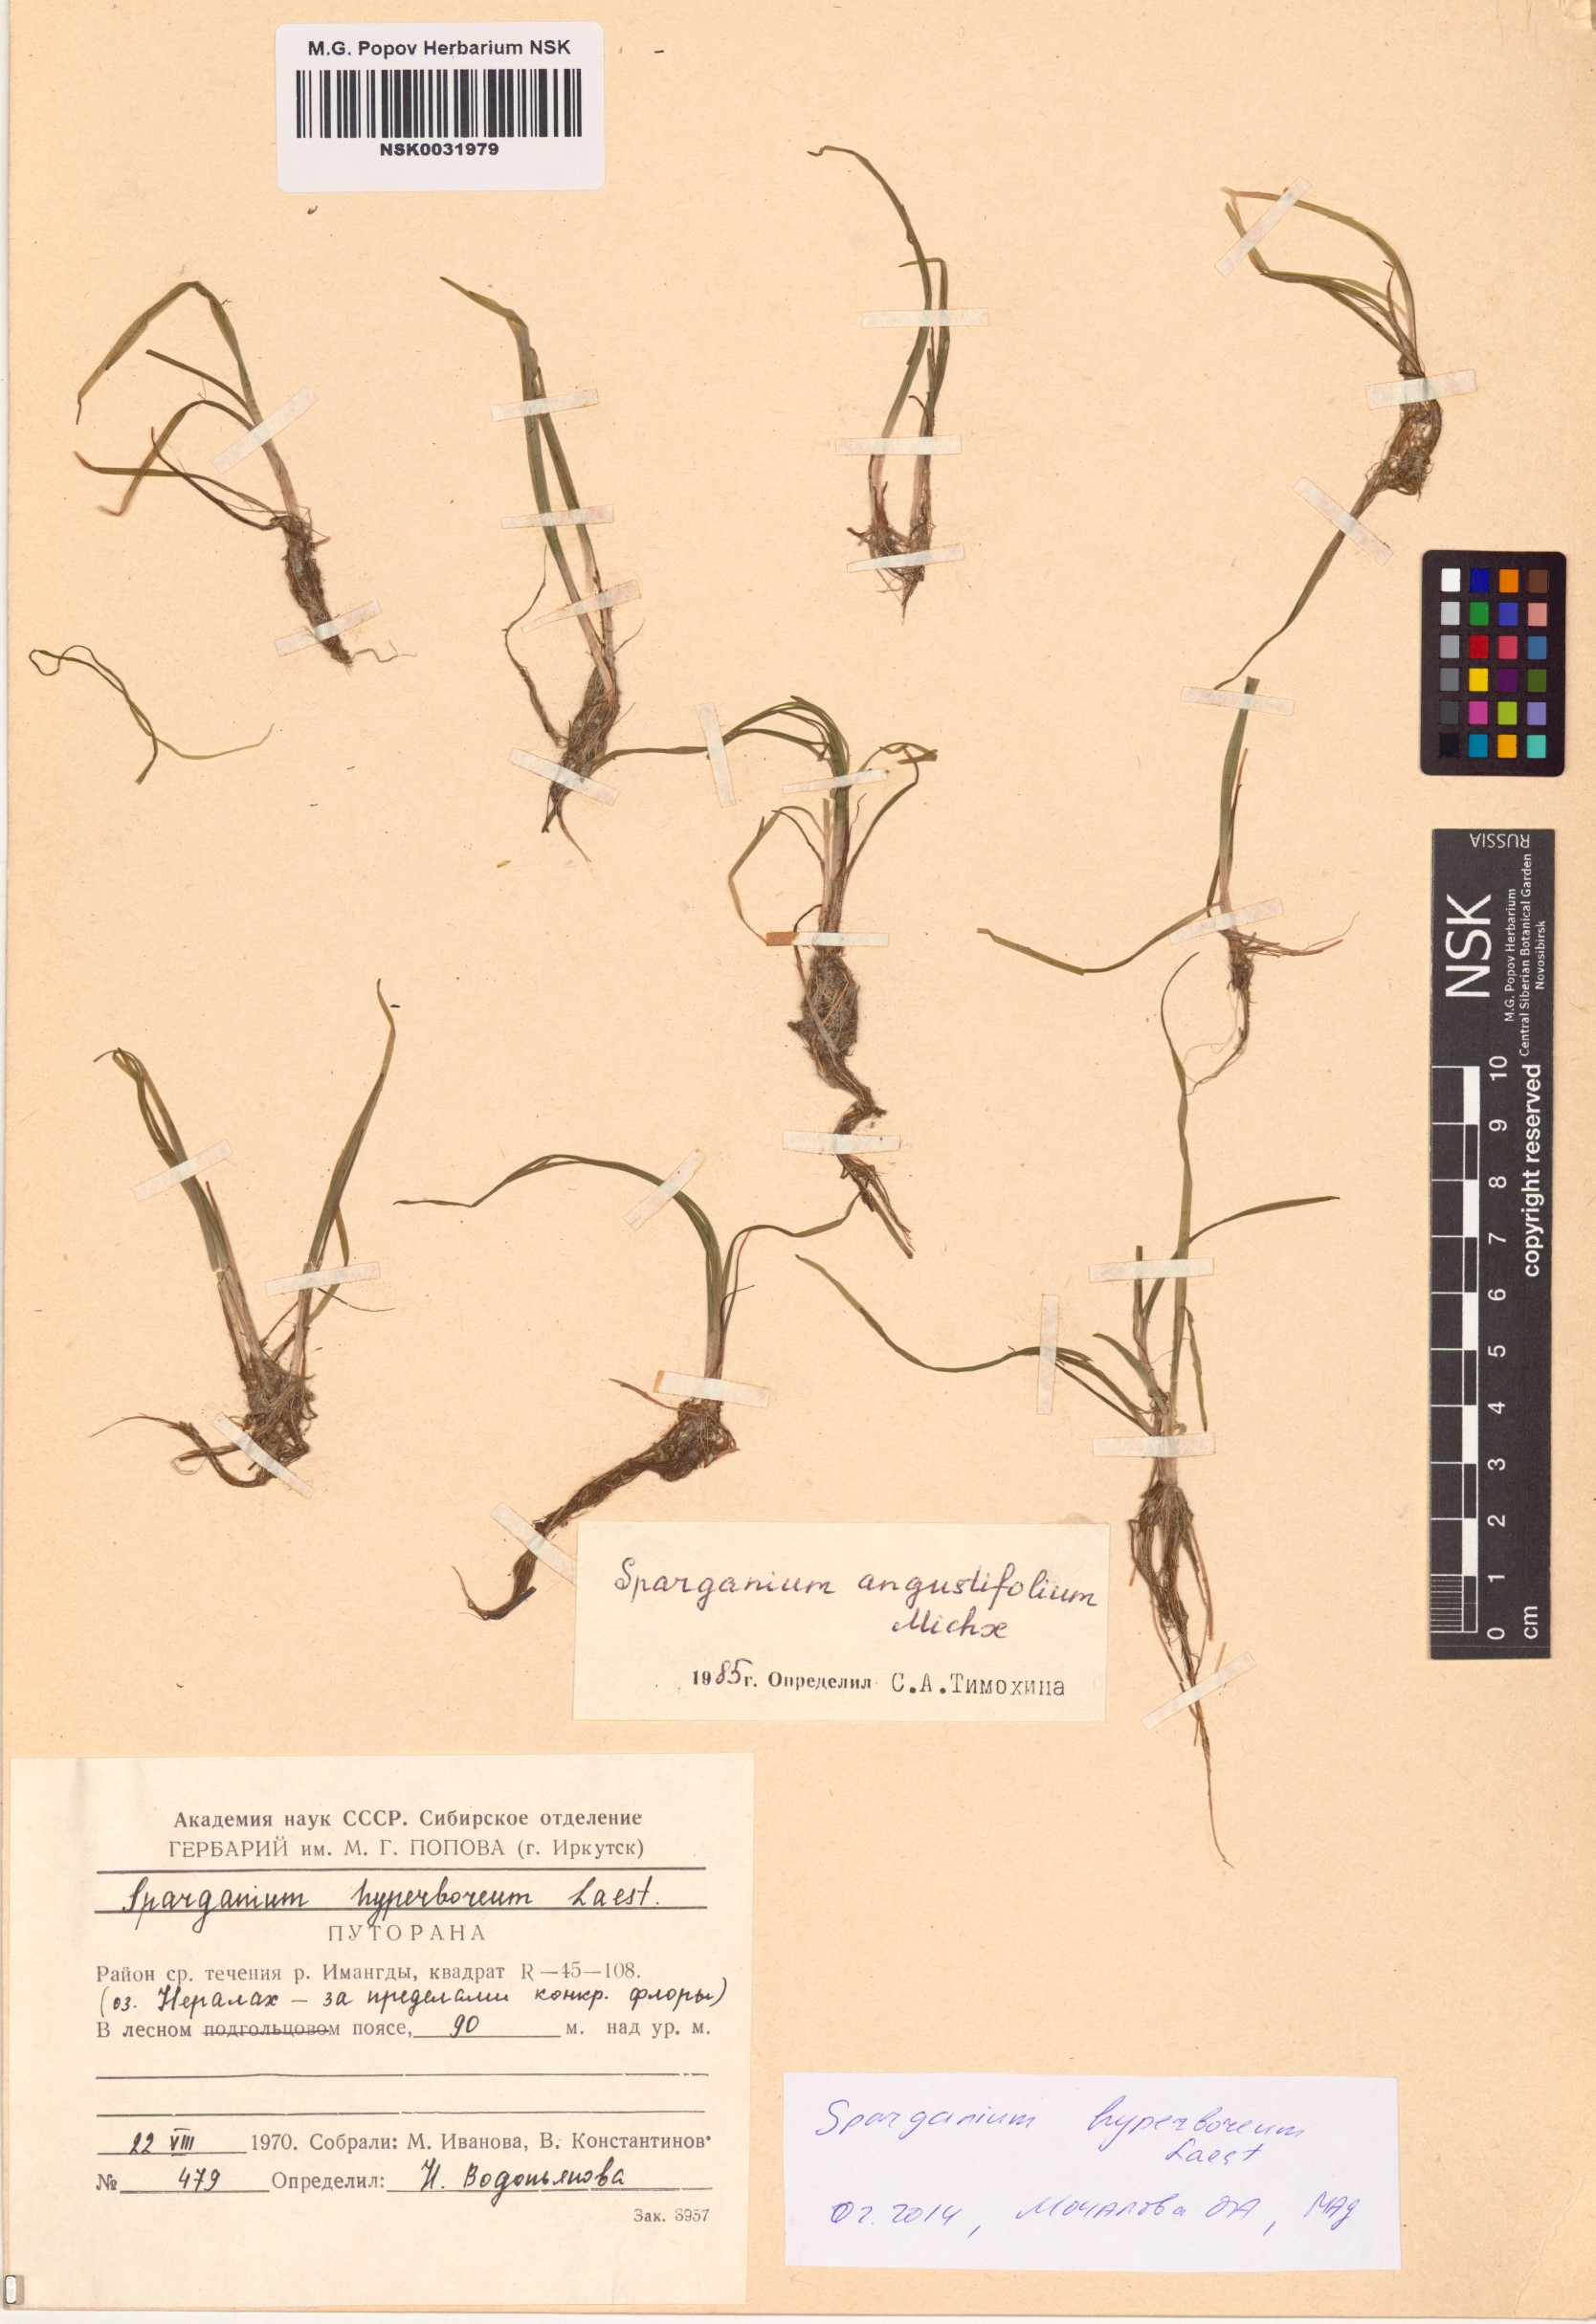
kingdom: Plantae
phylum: Tracheophyta
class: Liliopsida
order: Poales
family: Typhaceae
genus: Sparganium
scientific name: Sparganium hyperboreum
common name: Arctic burreed
